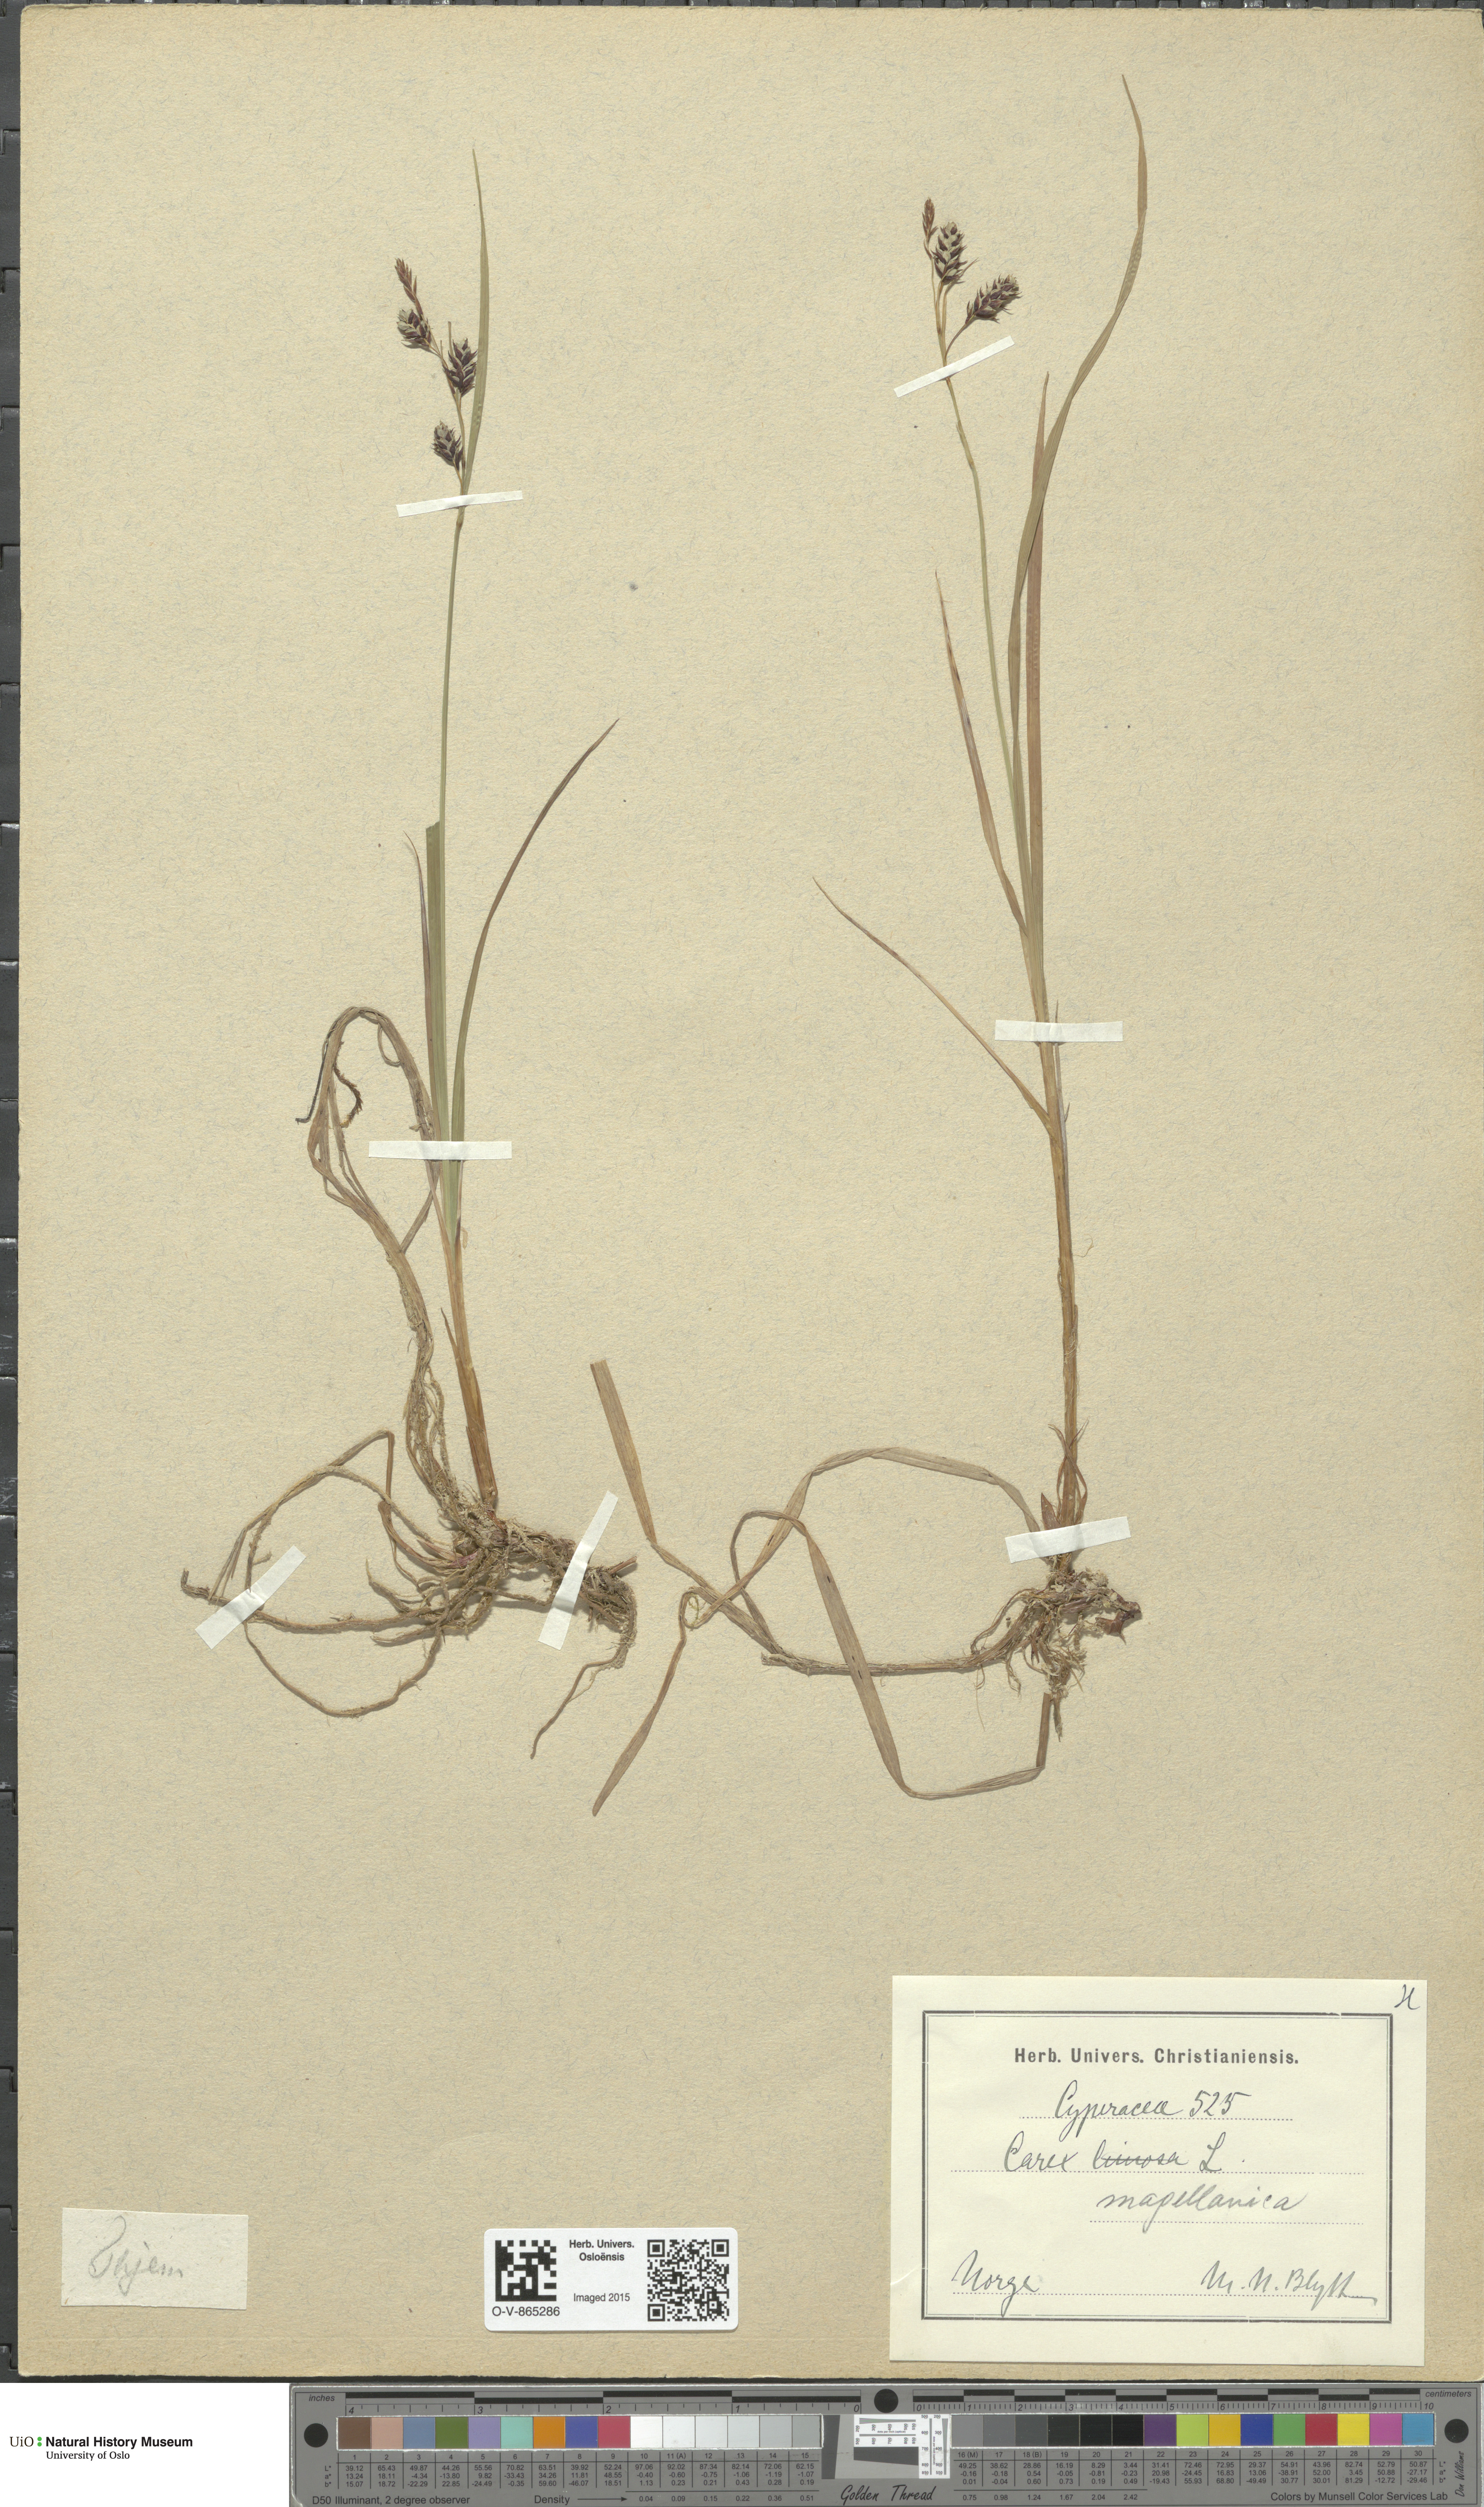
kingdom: Plantae
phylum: Tracheophyta
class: Liliopsida
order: Poales
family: Cyperaceae
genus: Carex
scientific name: Carex magellanica
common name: Bog sedge
